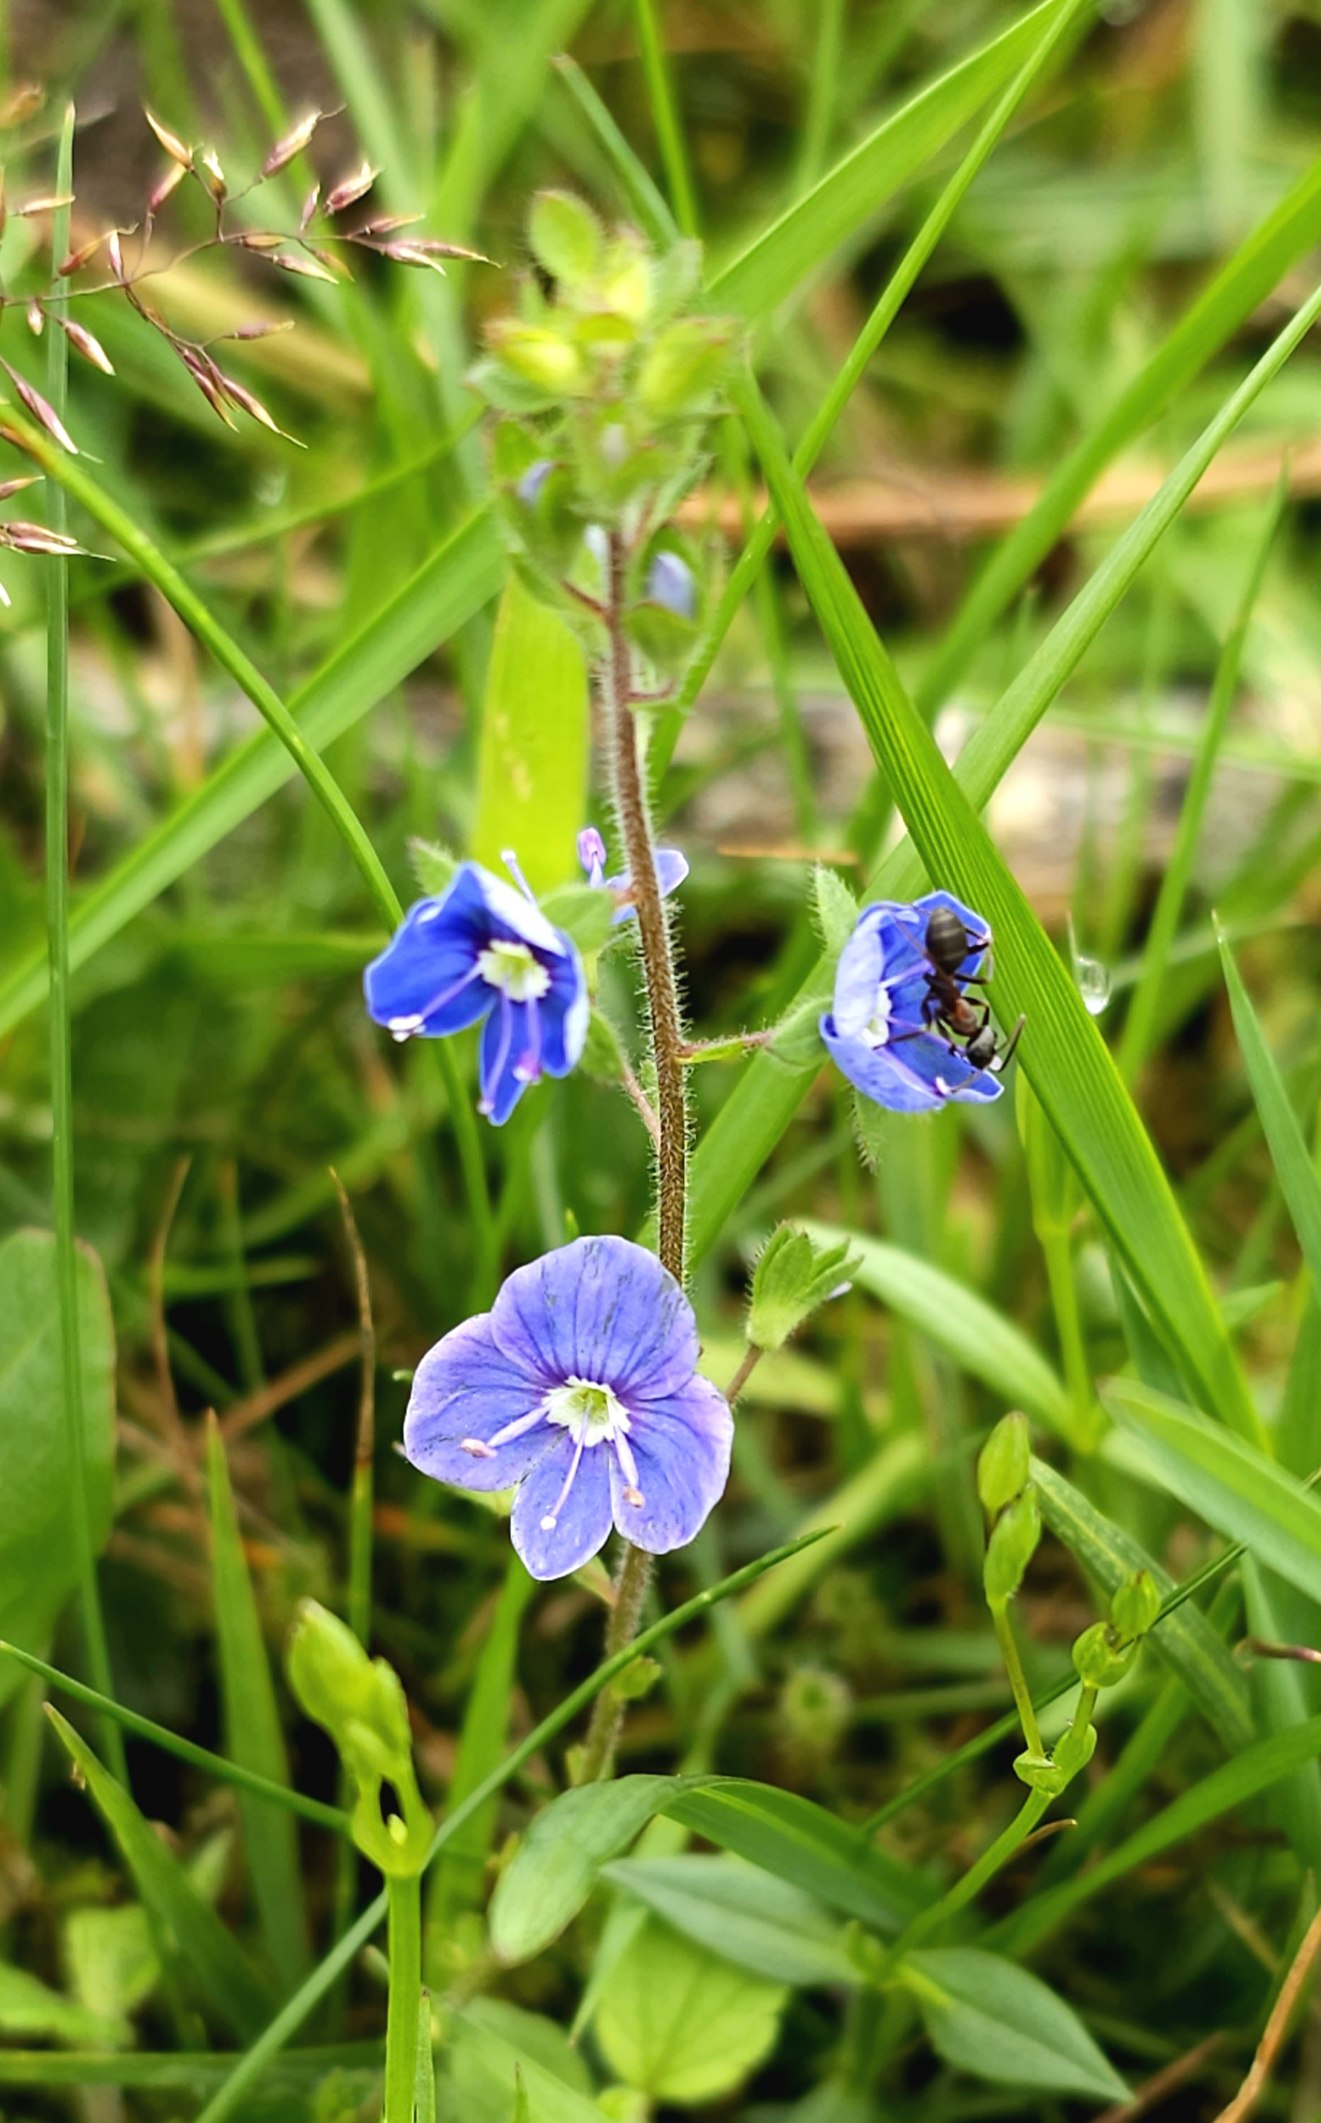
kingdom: Plantae
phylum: Tracheophyta
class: Magnoliopsida
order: Lamiales
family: Plantaginaceae
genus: Veronica
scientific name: Veronica chamaedrys
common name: Tveskægget ærenpris
